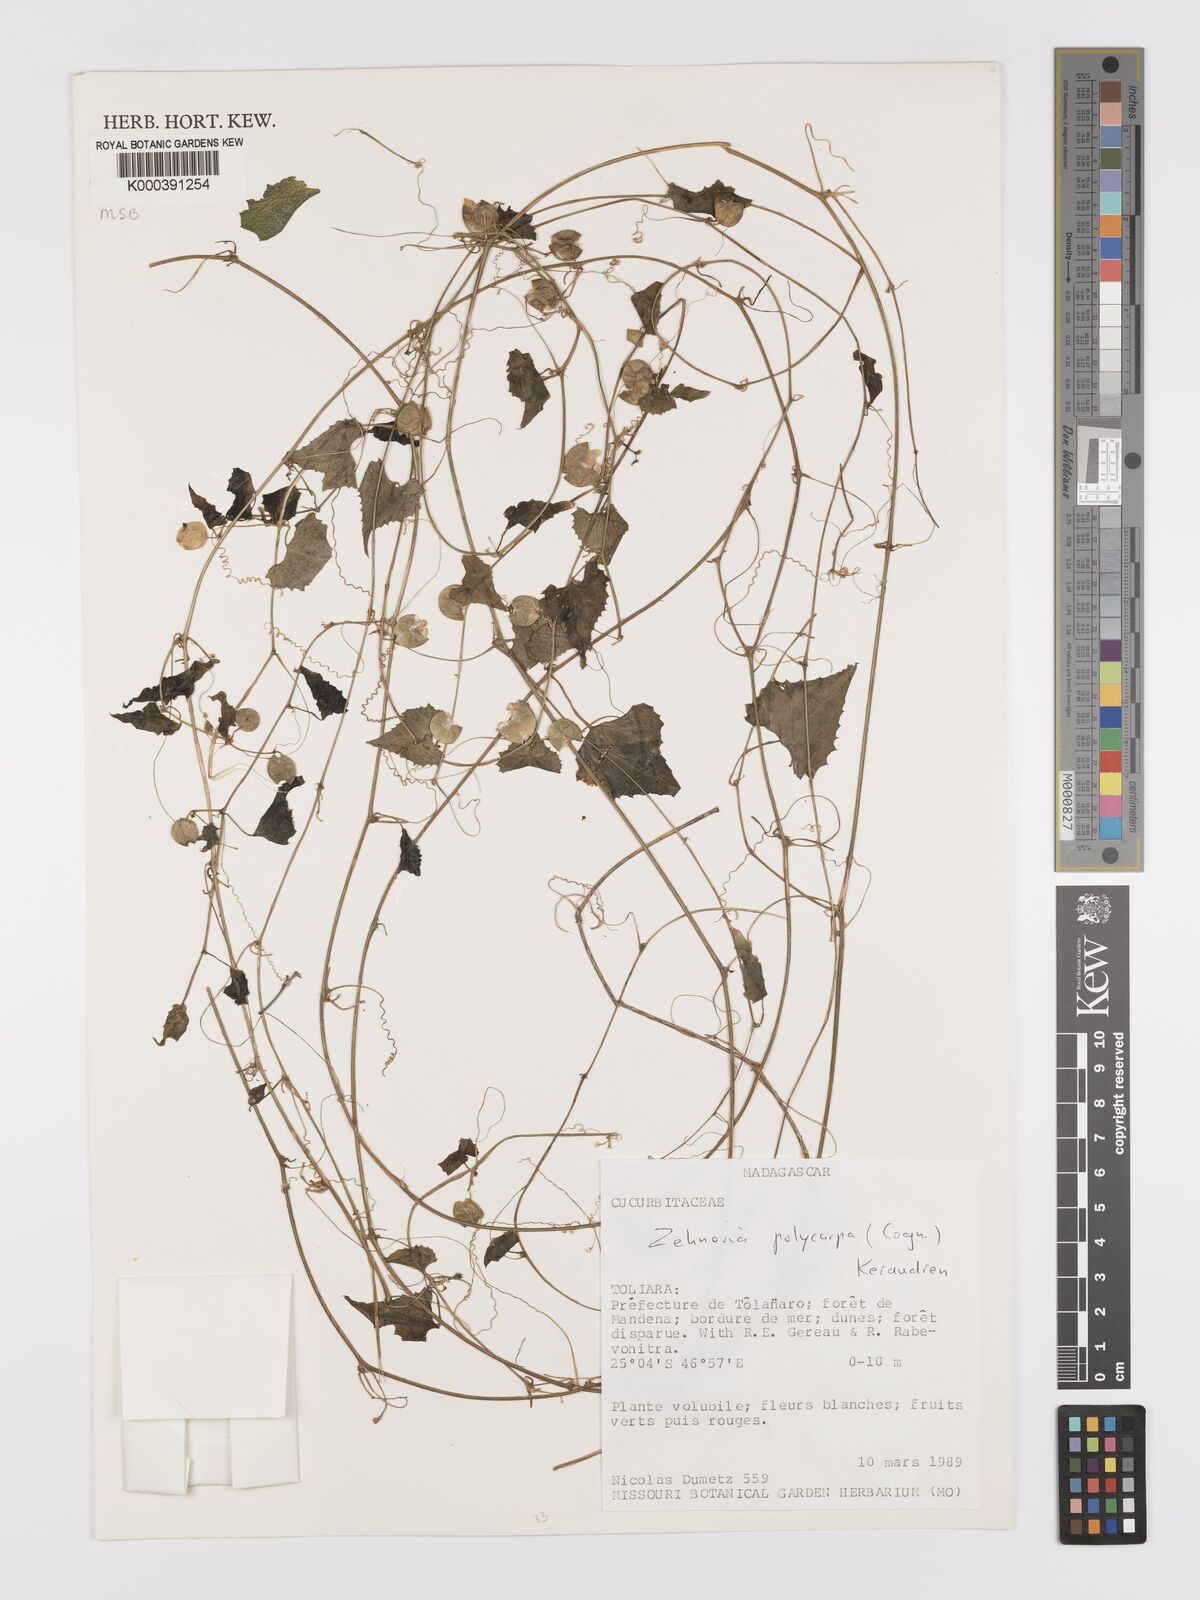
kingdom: Plantae
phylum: Tracheophyta
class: Magnoliopsida
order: Cucurbitales
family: Cucurbitaceae
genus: Zehneria
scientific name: Zehneria polycarpa
